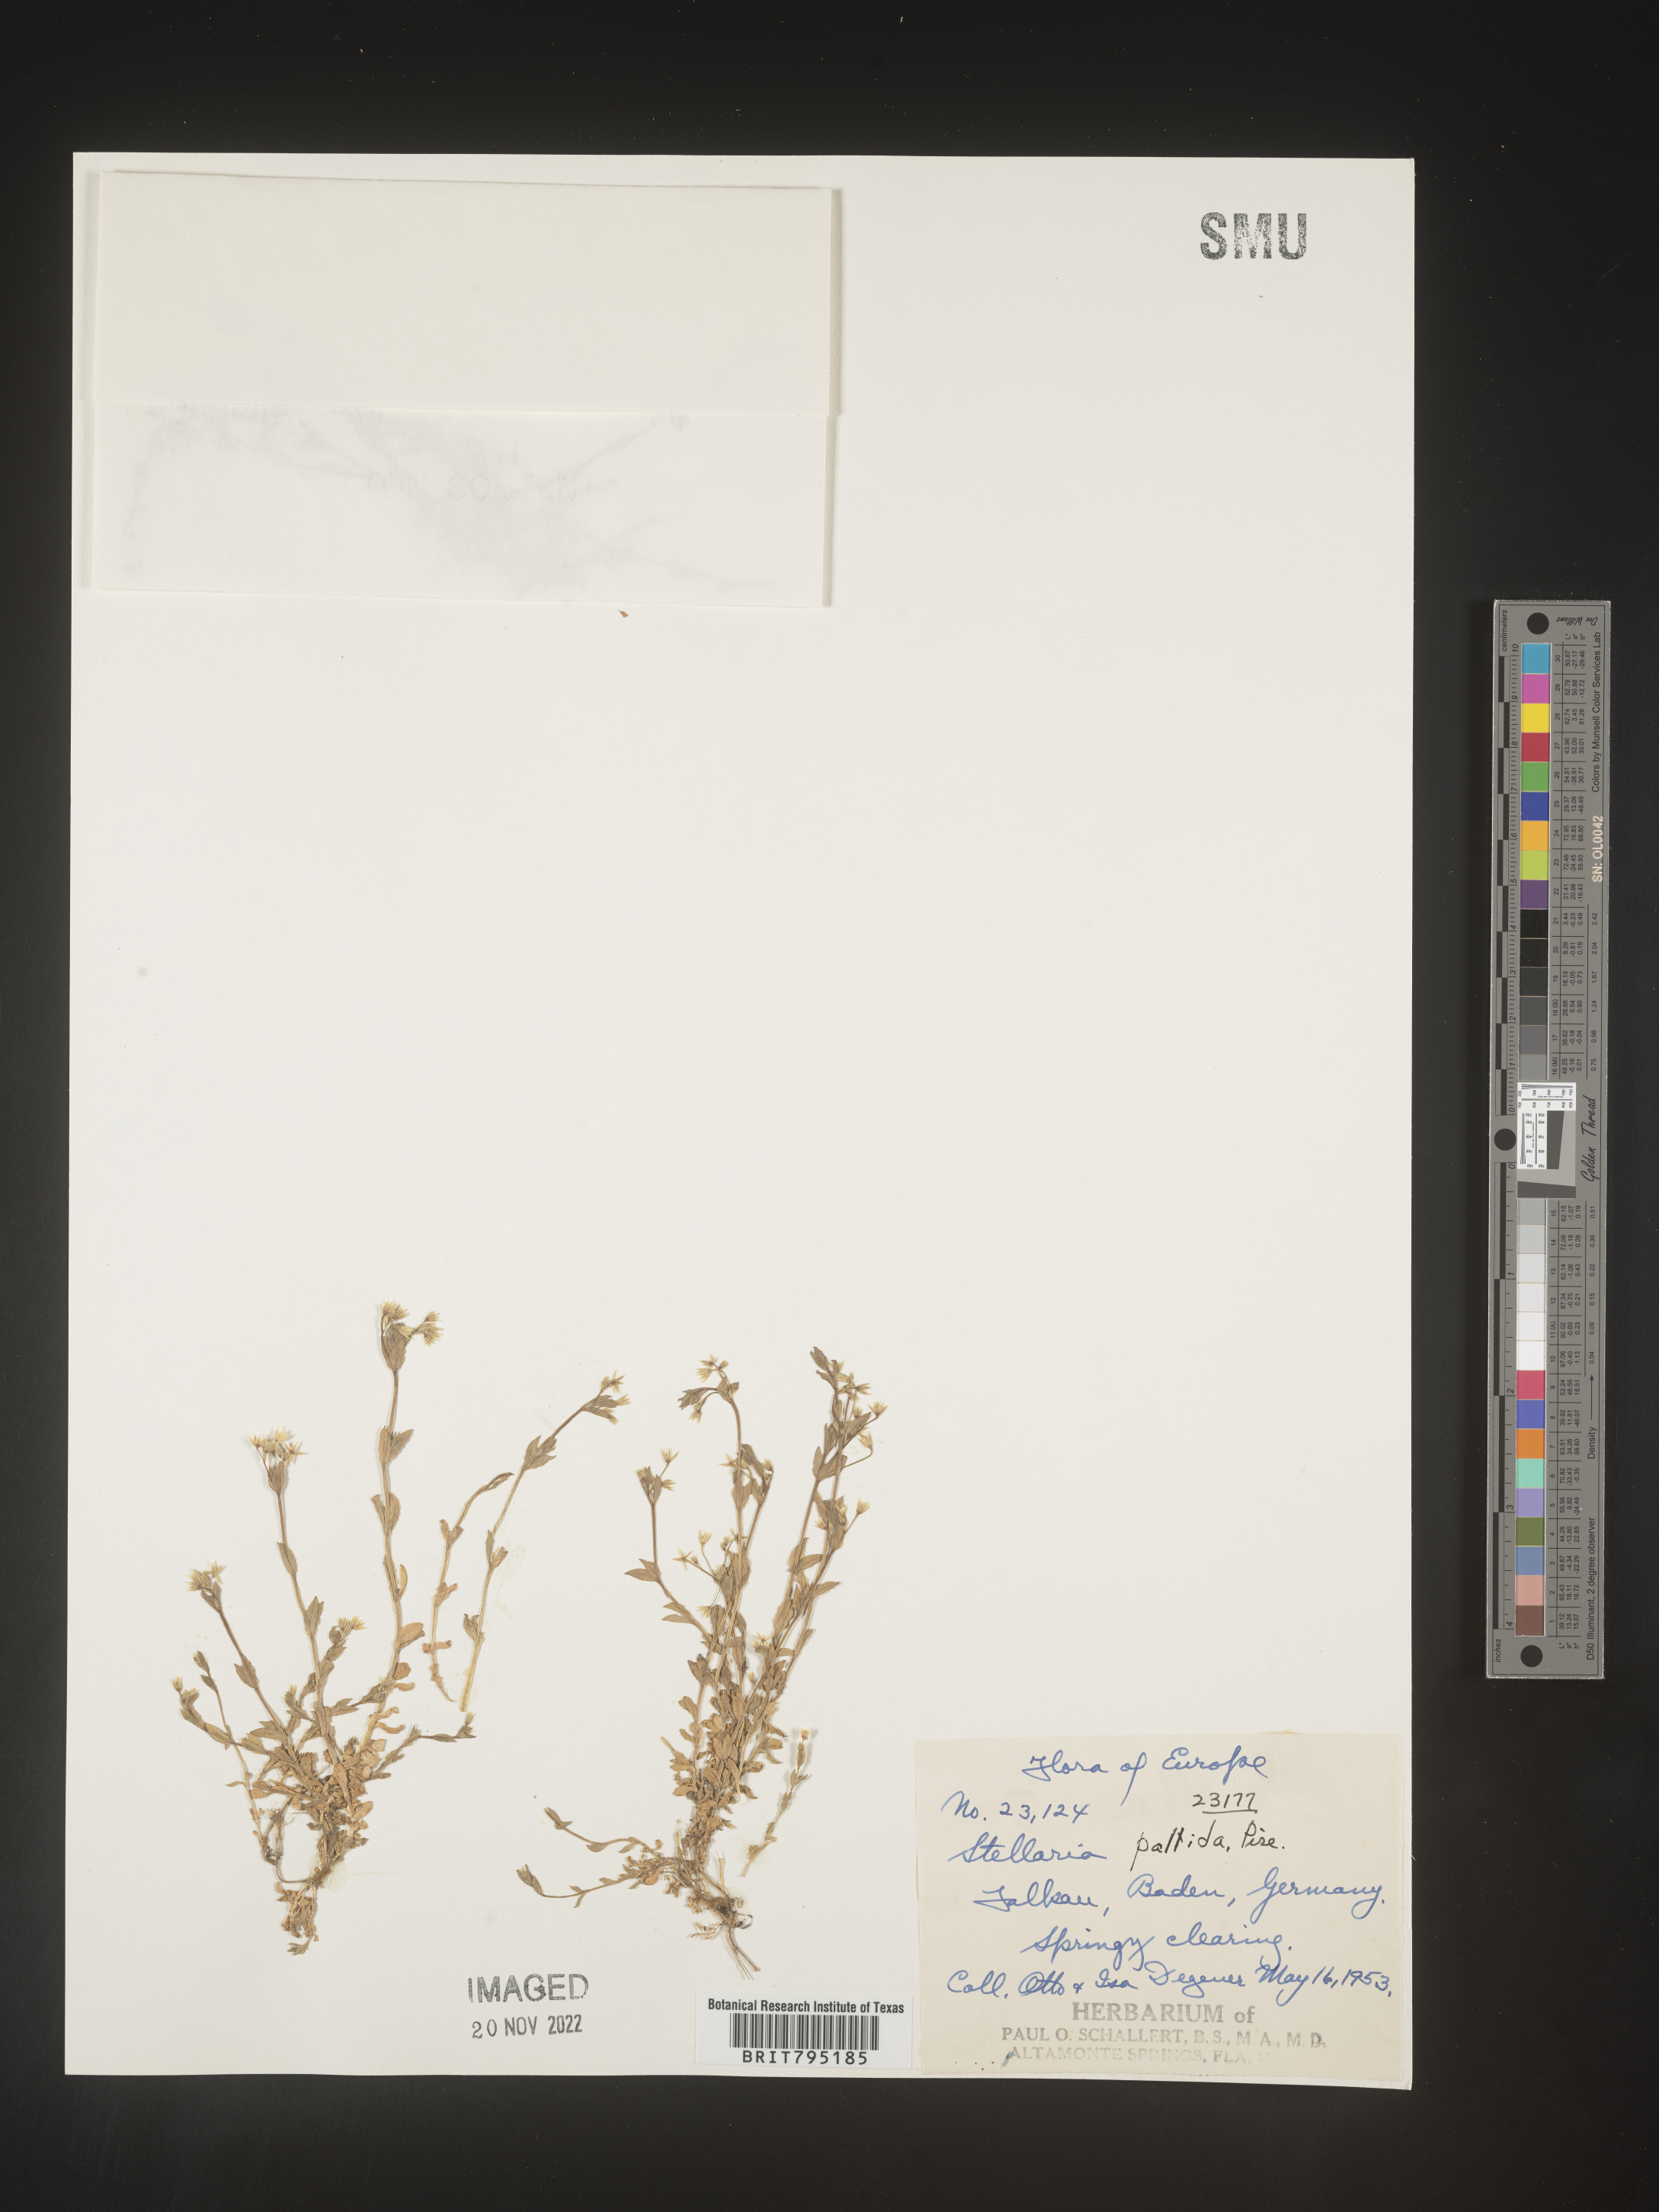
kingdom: Plantae
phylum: Tracheophyta
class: Magnoliopsida
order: Caryophyllales
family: Caryophyllaceae
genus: Stellaria
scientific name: Stellaria
